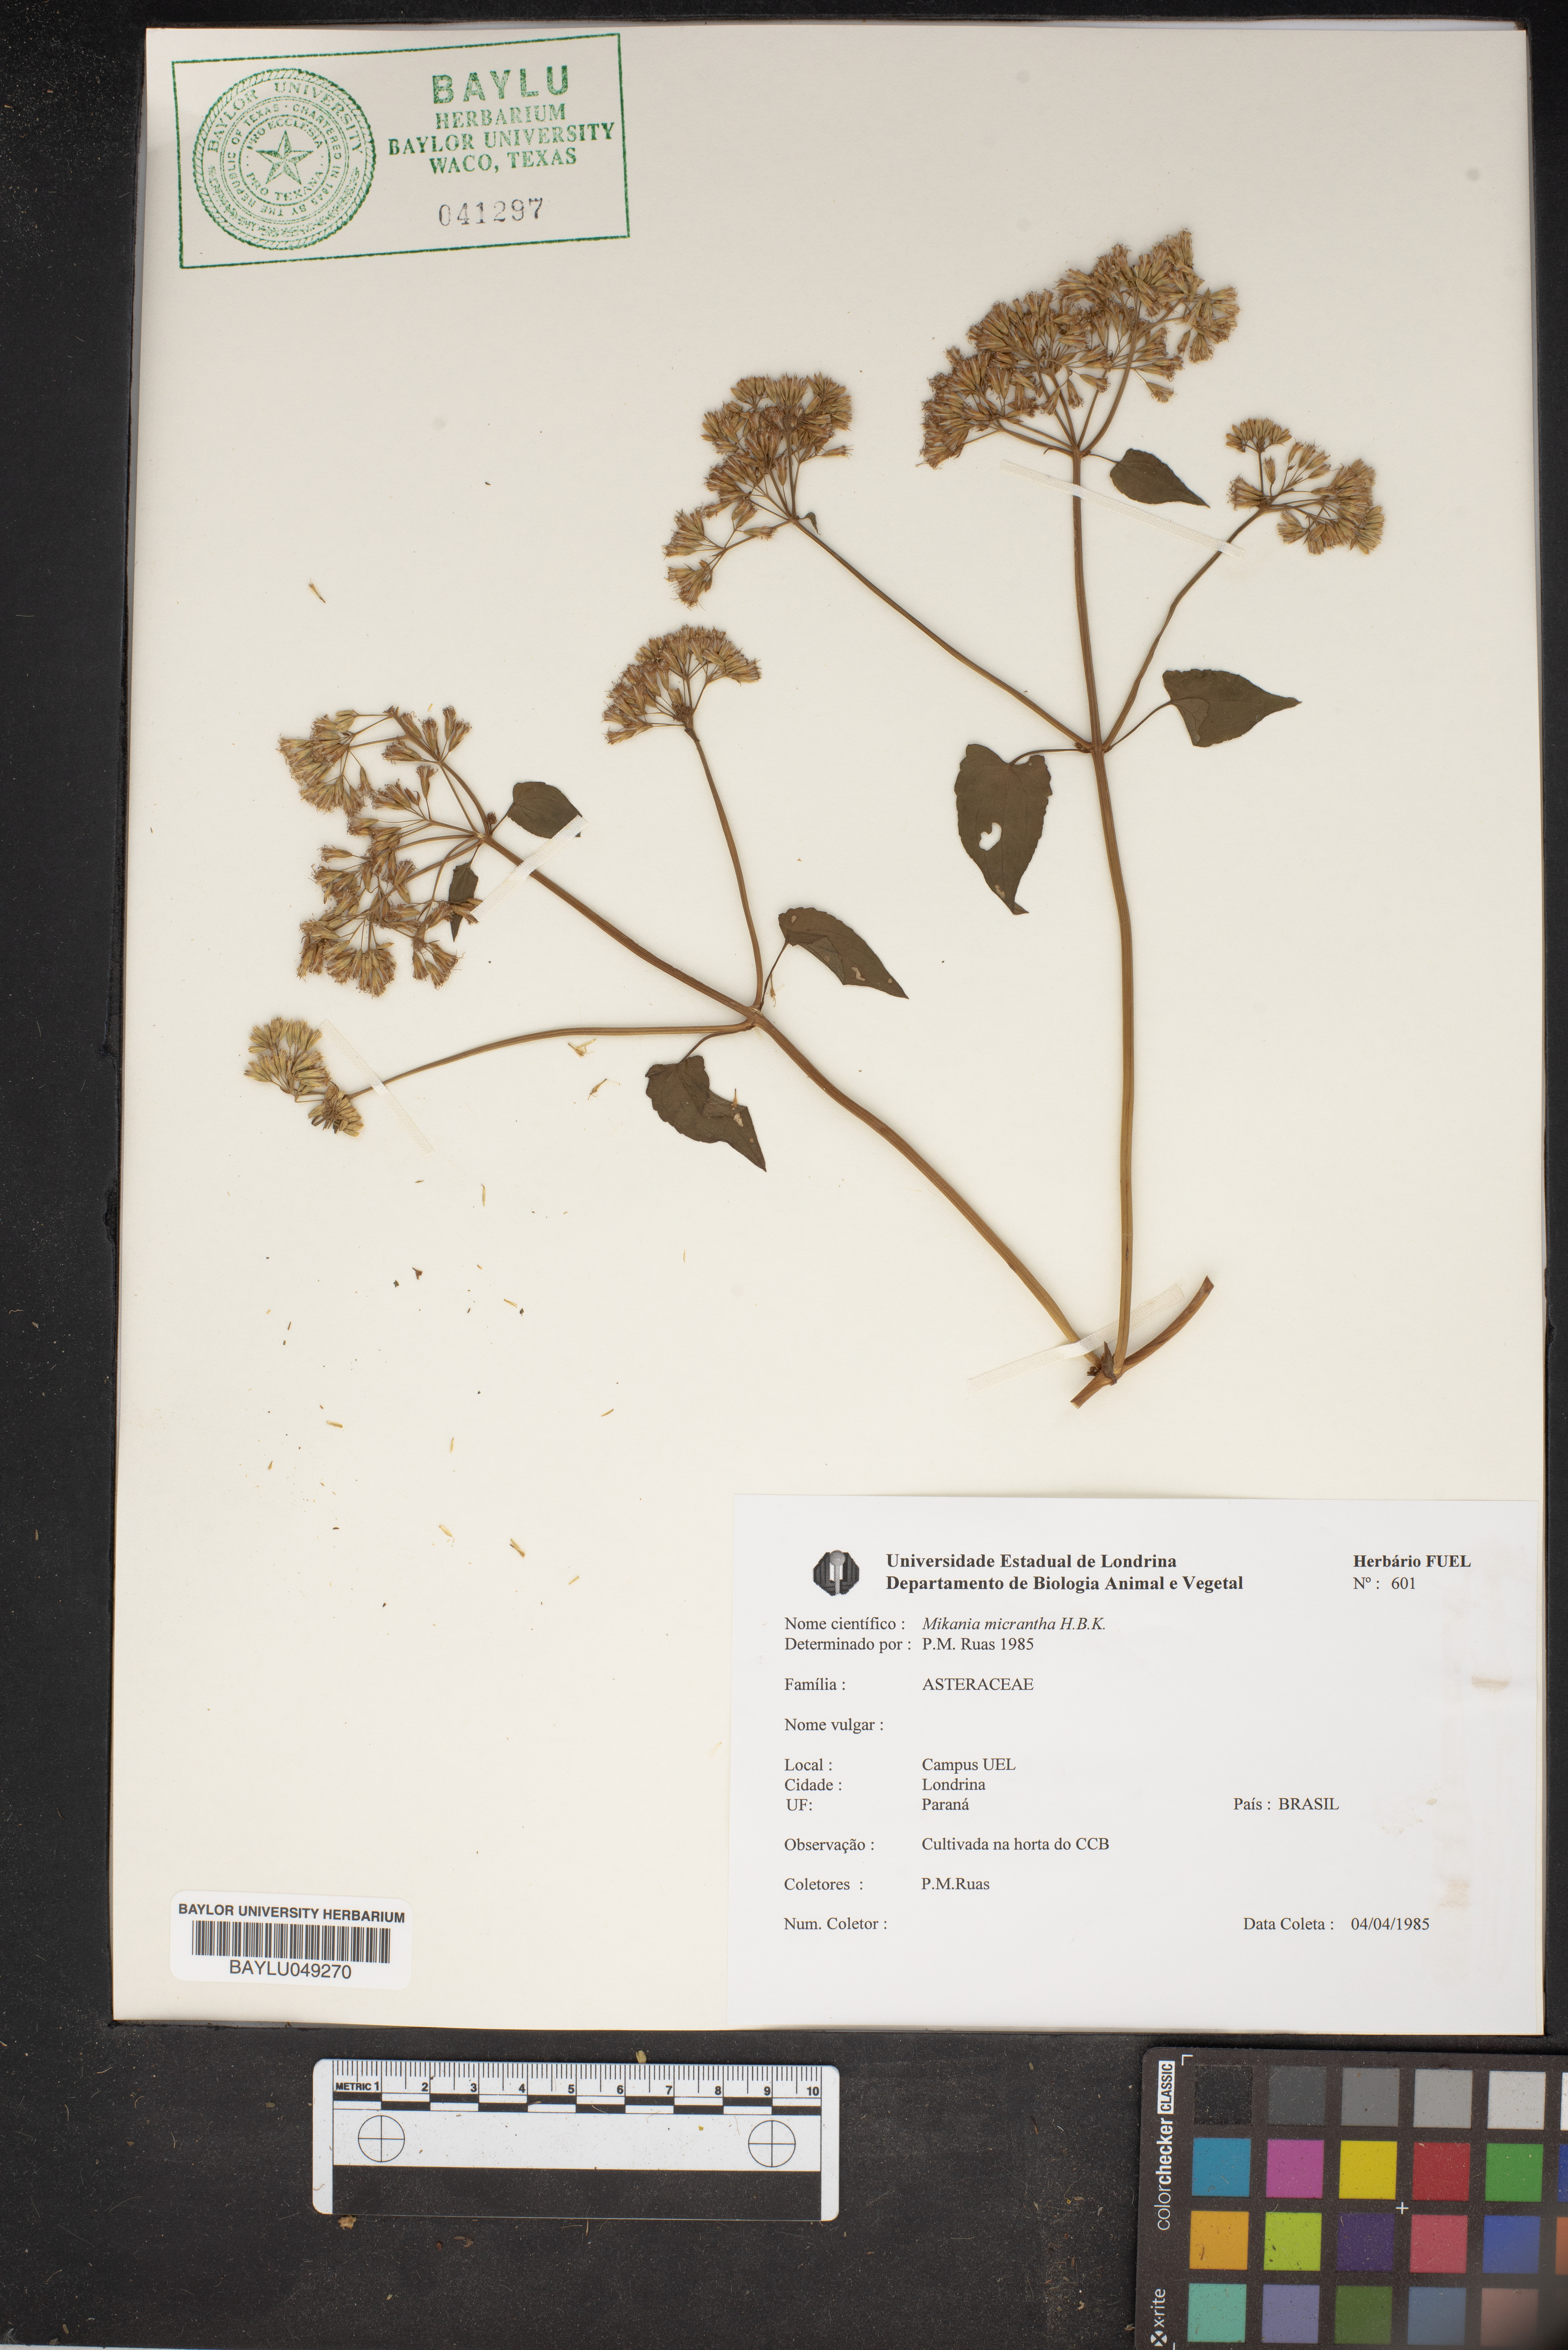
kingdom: Plantae
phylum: Tracheophyta
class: Magnoliopsida
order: Asterales
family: Asteraceae
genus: Mikania
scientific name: Mikania micrantha
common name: Mile-a-minute
